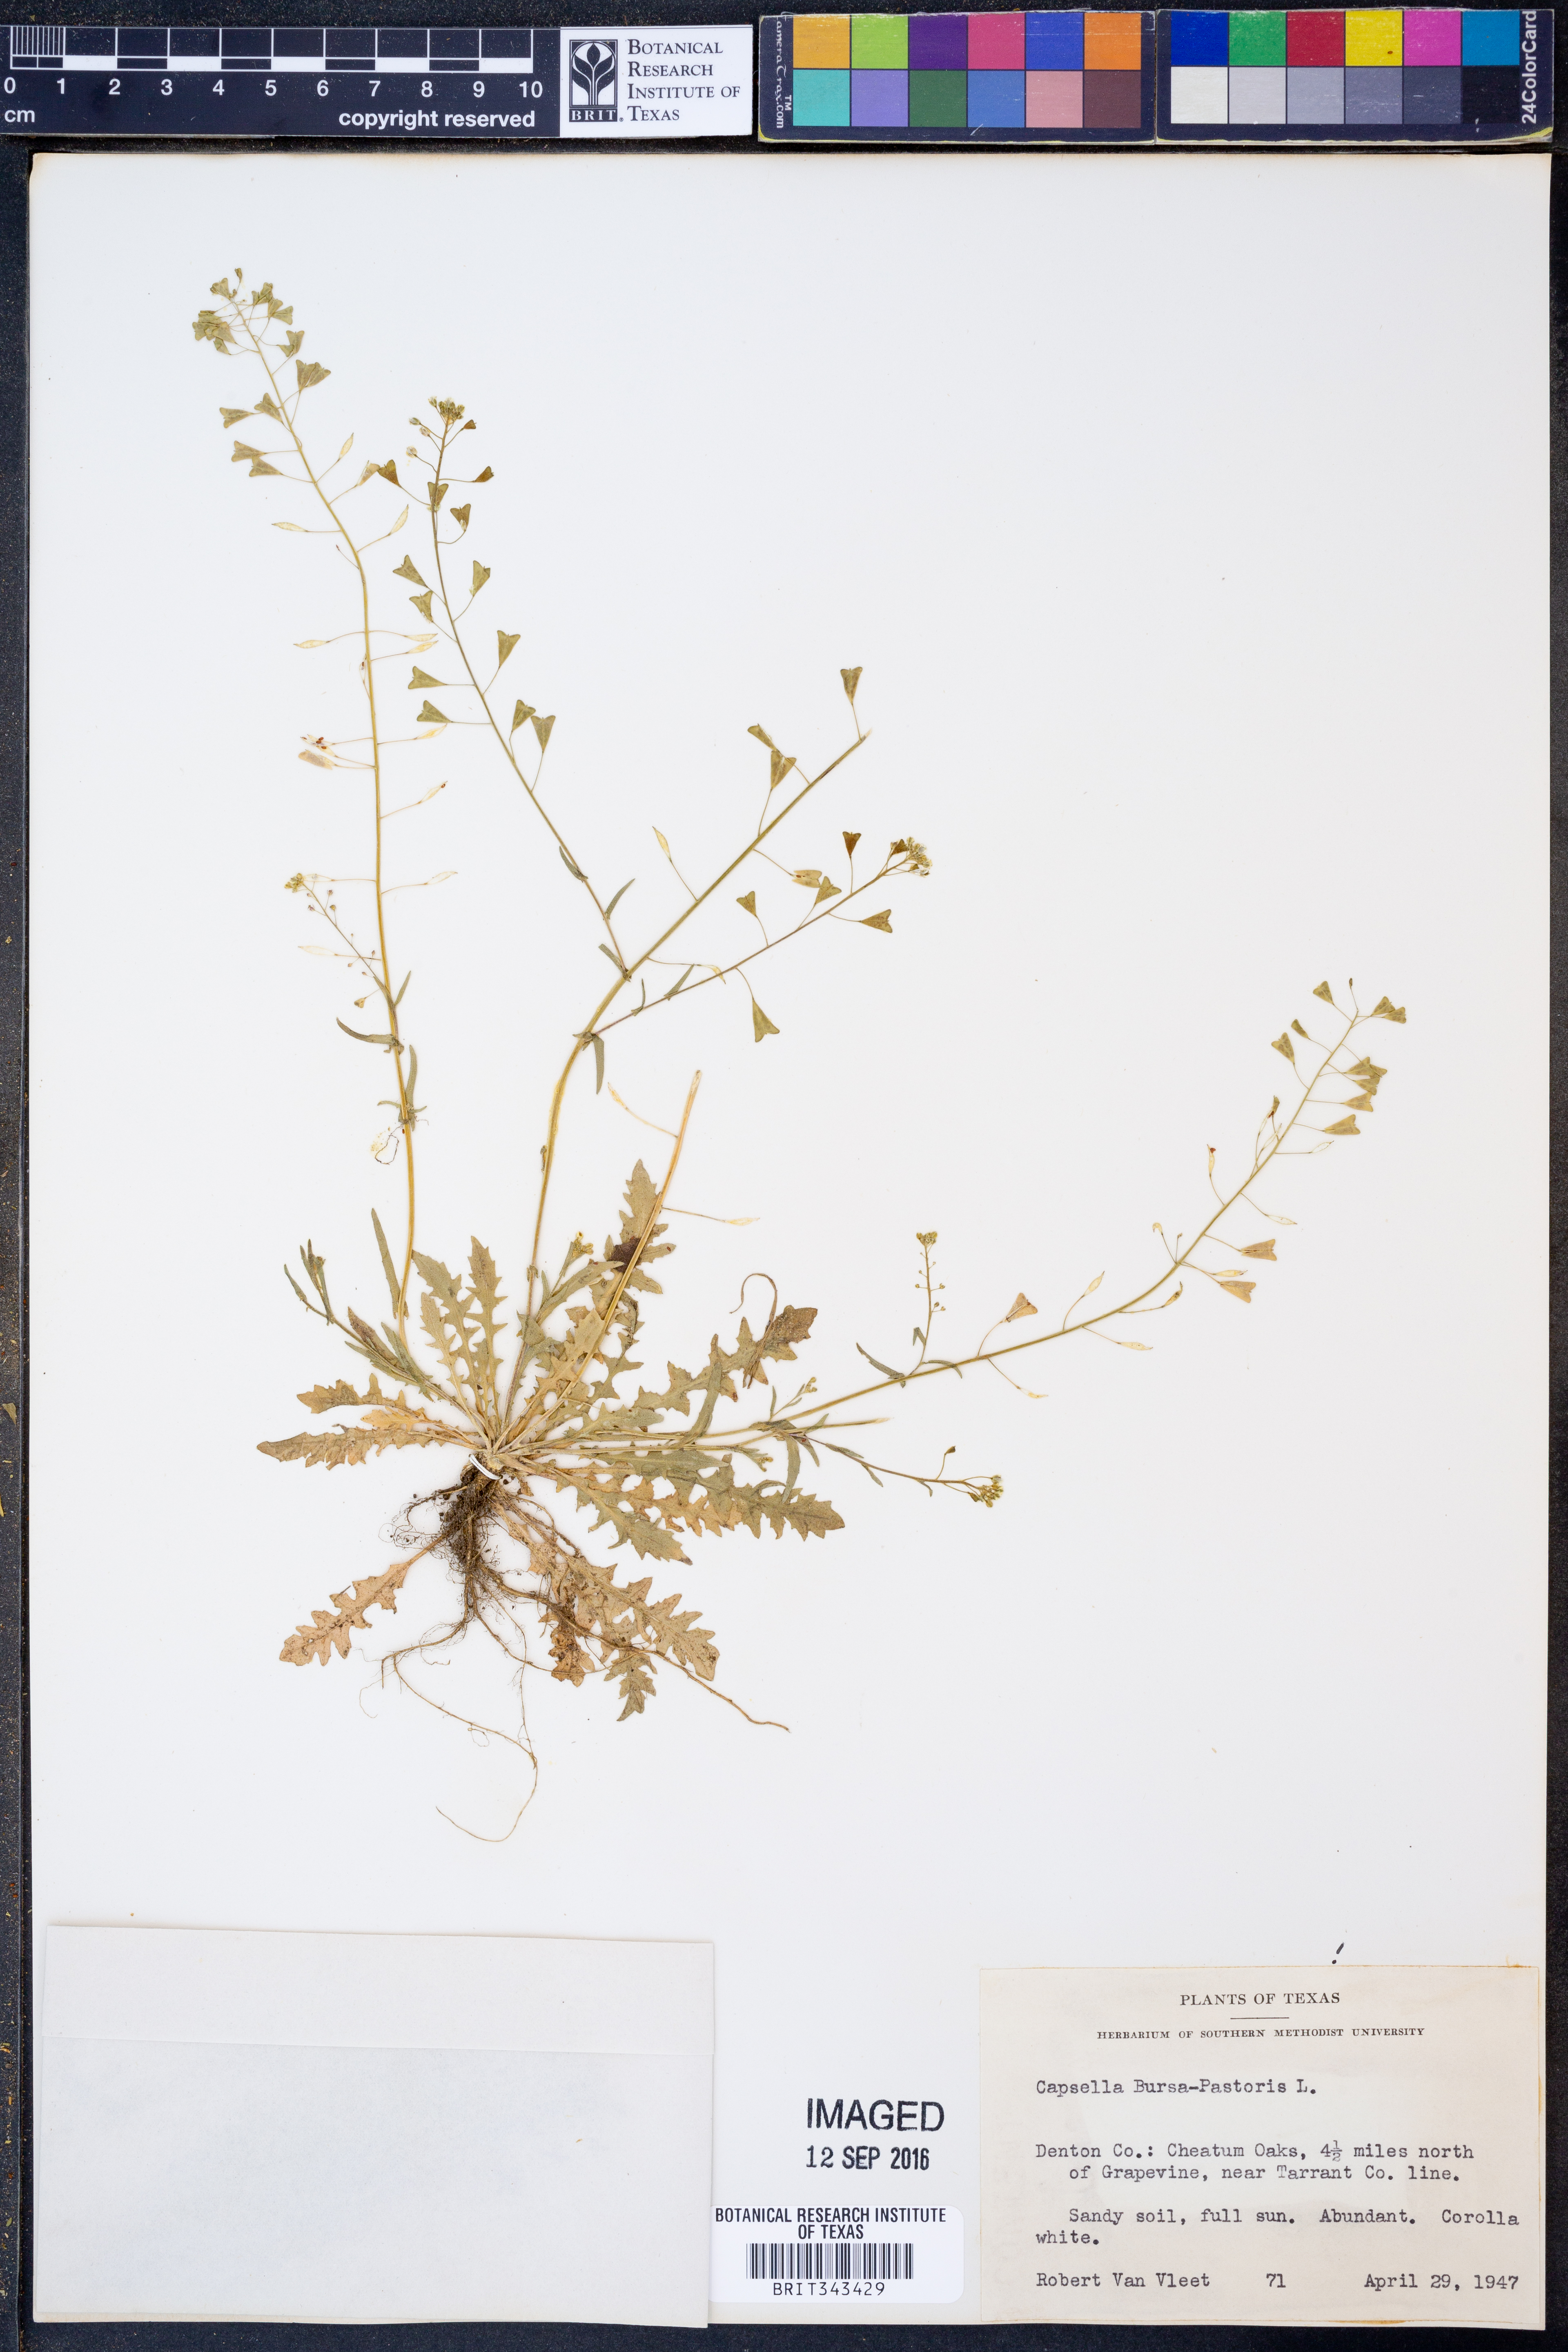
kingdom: Plantae
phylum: Tracheophyta
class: Magnoliopsida
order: Brassicales
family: Brassicaceae
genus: Capsella
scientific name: Capsella bursa-pastoris
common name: Shepherd's purse
